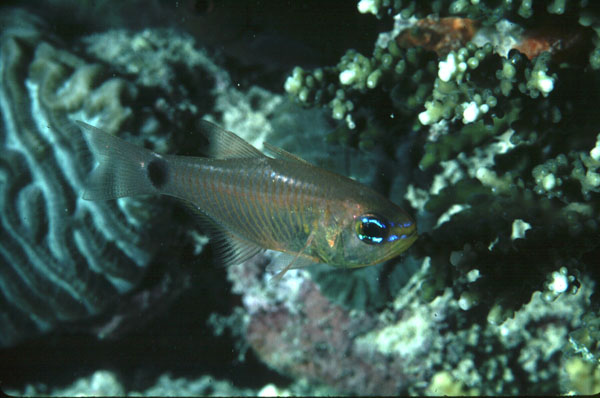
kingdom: Animalia
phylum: Chordata
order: Perciformes
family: Apogonidae
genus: Taeniamia
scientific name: Taeniamia fucata
